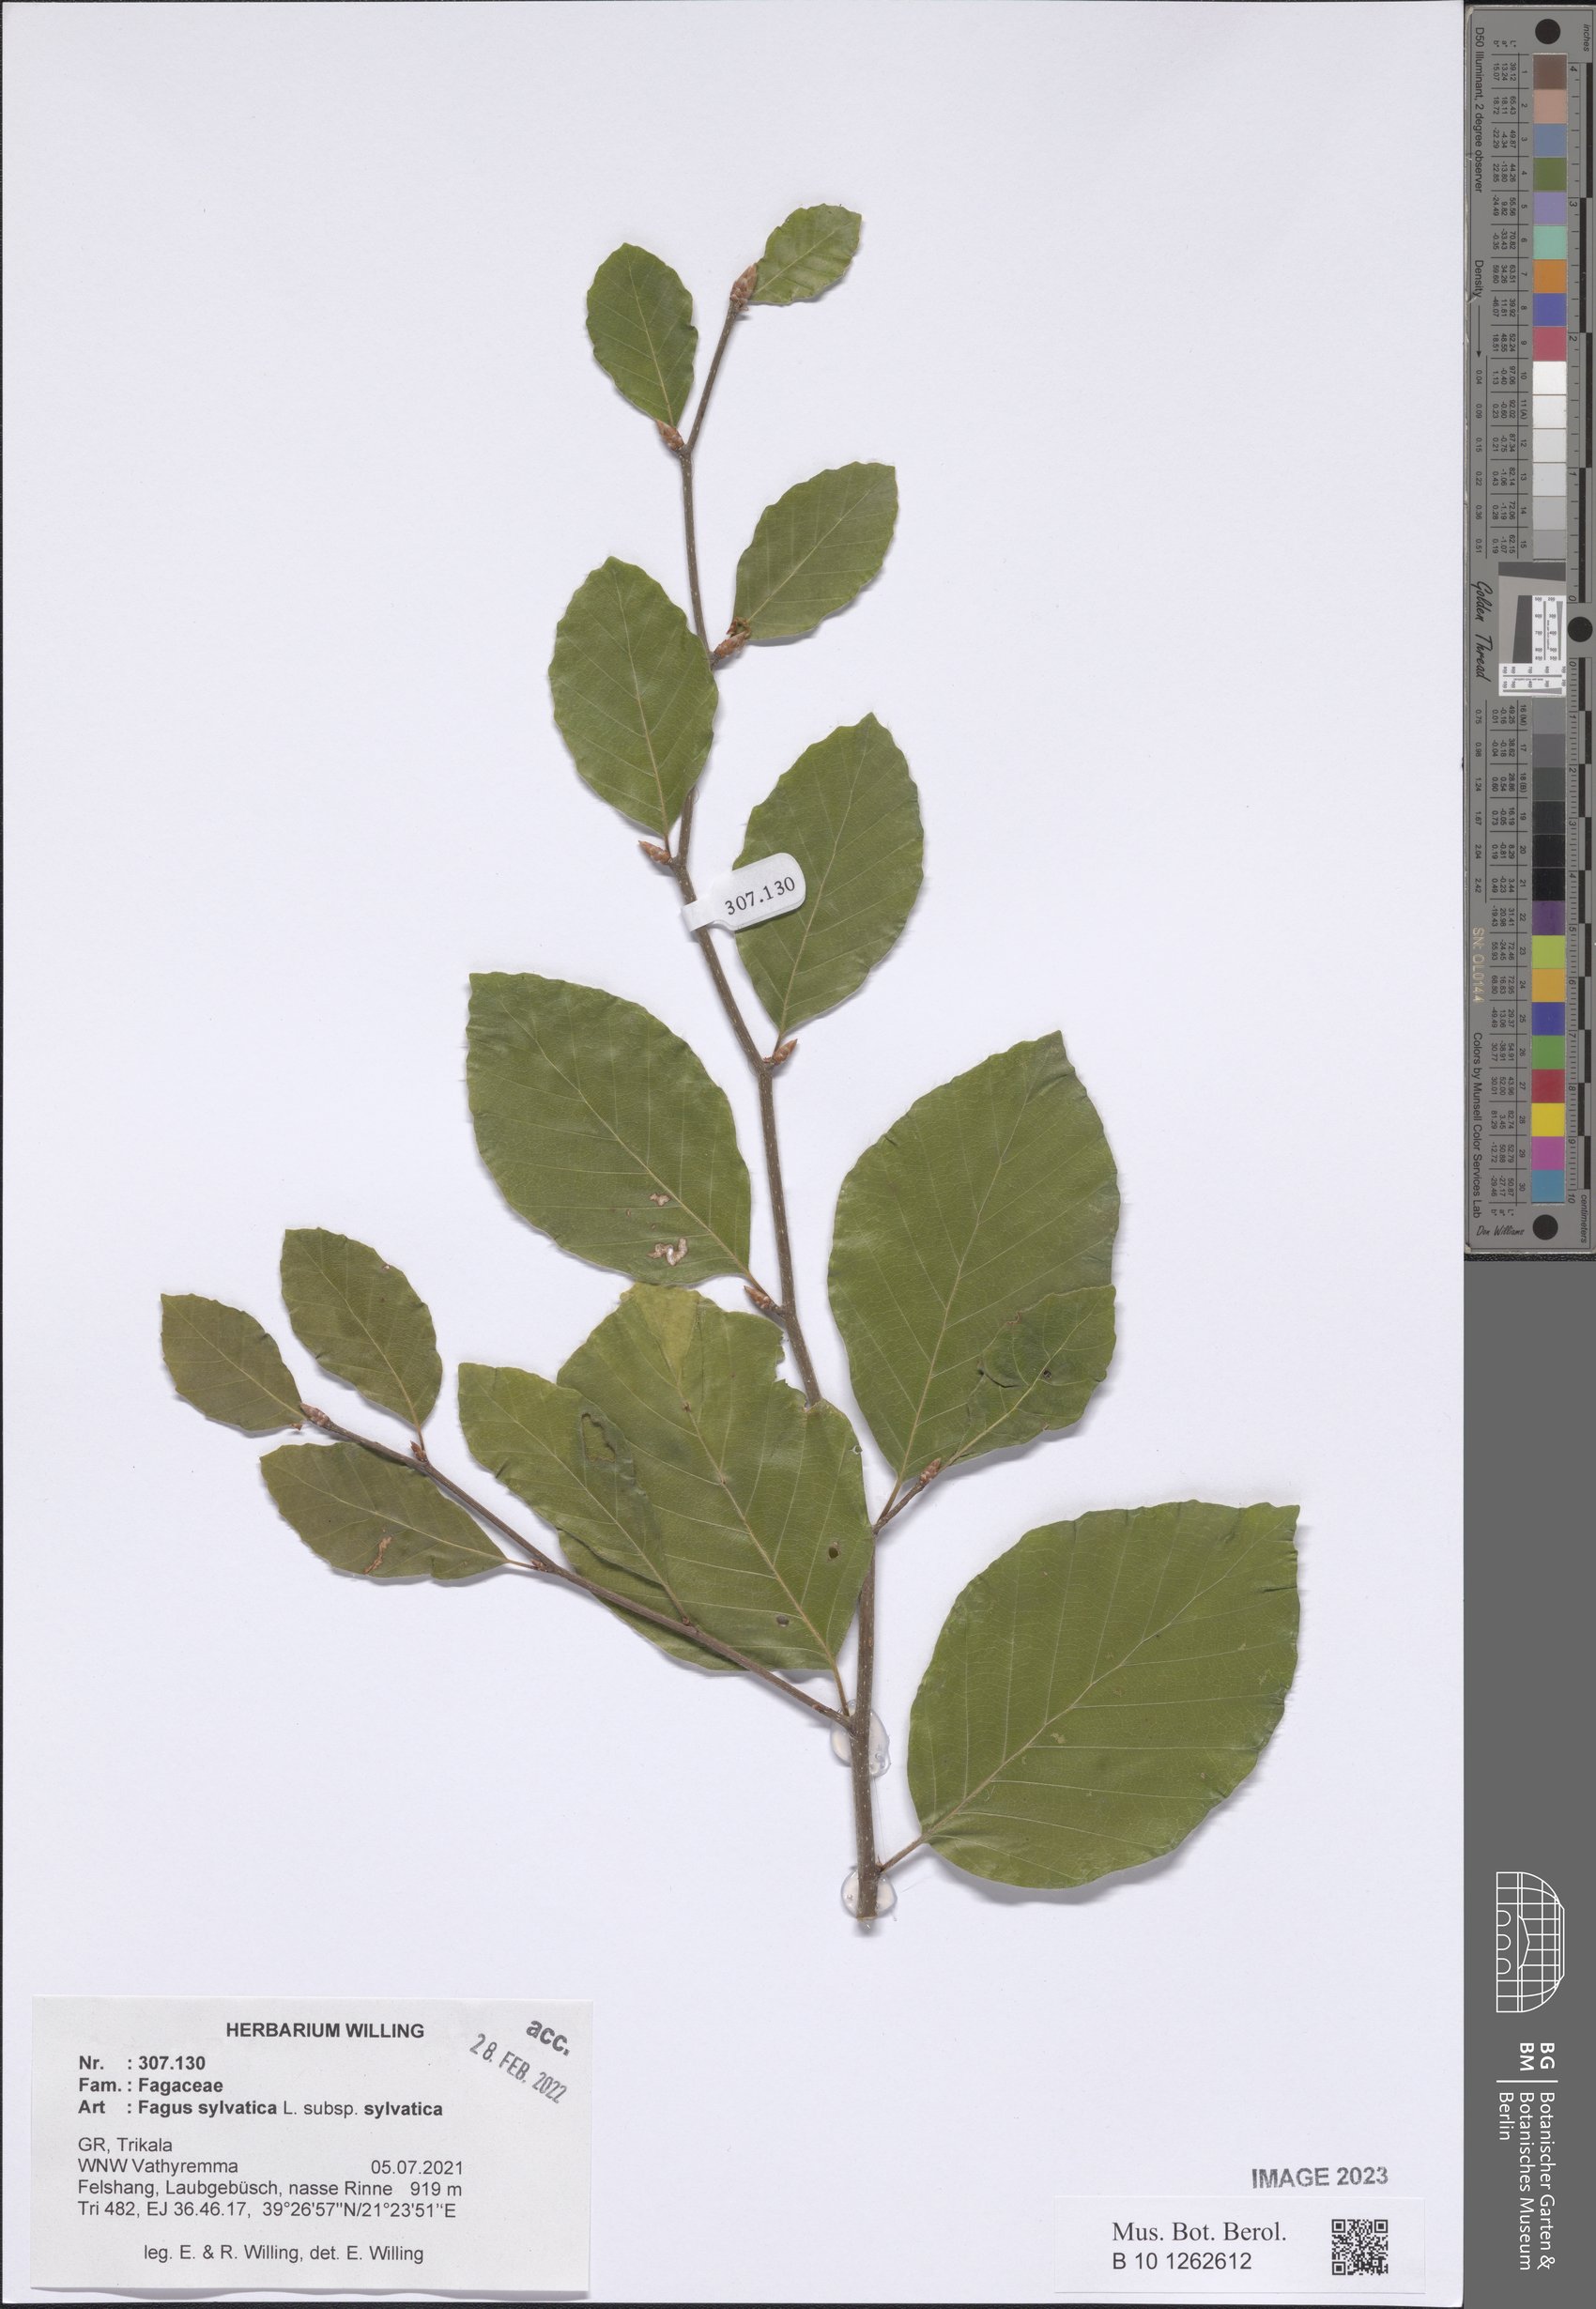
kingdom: Plantae
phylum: Tracheophyta
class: Magnoliopsida
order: Fagales
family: Fagaceae
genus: Fagus
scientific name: Fagus sylvatica
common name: Beech
